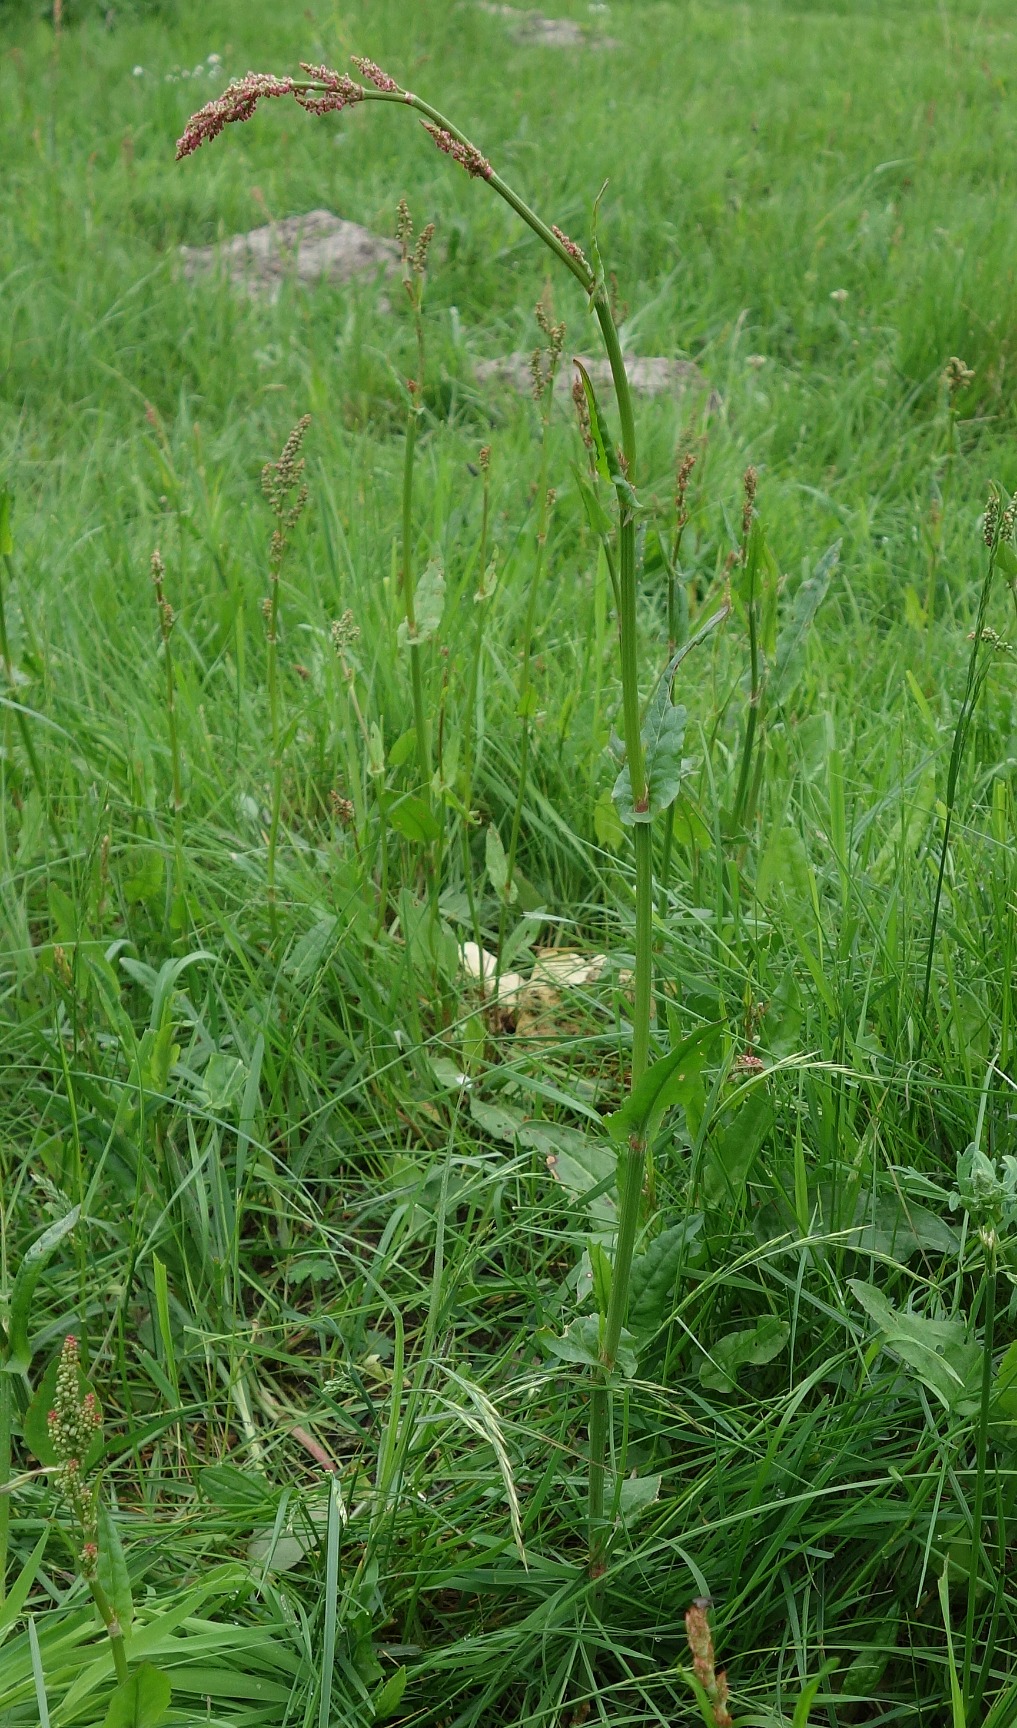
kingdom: Plantae
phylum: Tracheophyta
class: Magnoliopsida
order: Caryophyllales
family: Polygonaceae
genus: Rumex
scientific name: Rumex acetosa
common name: Almindelig syre
